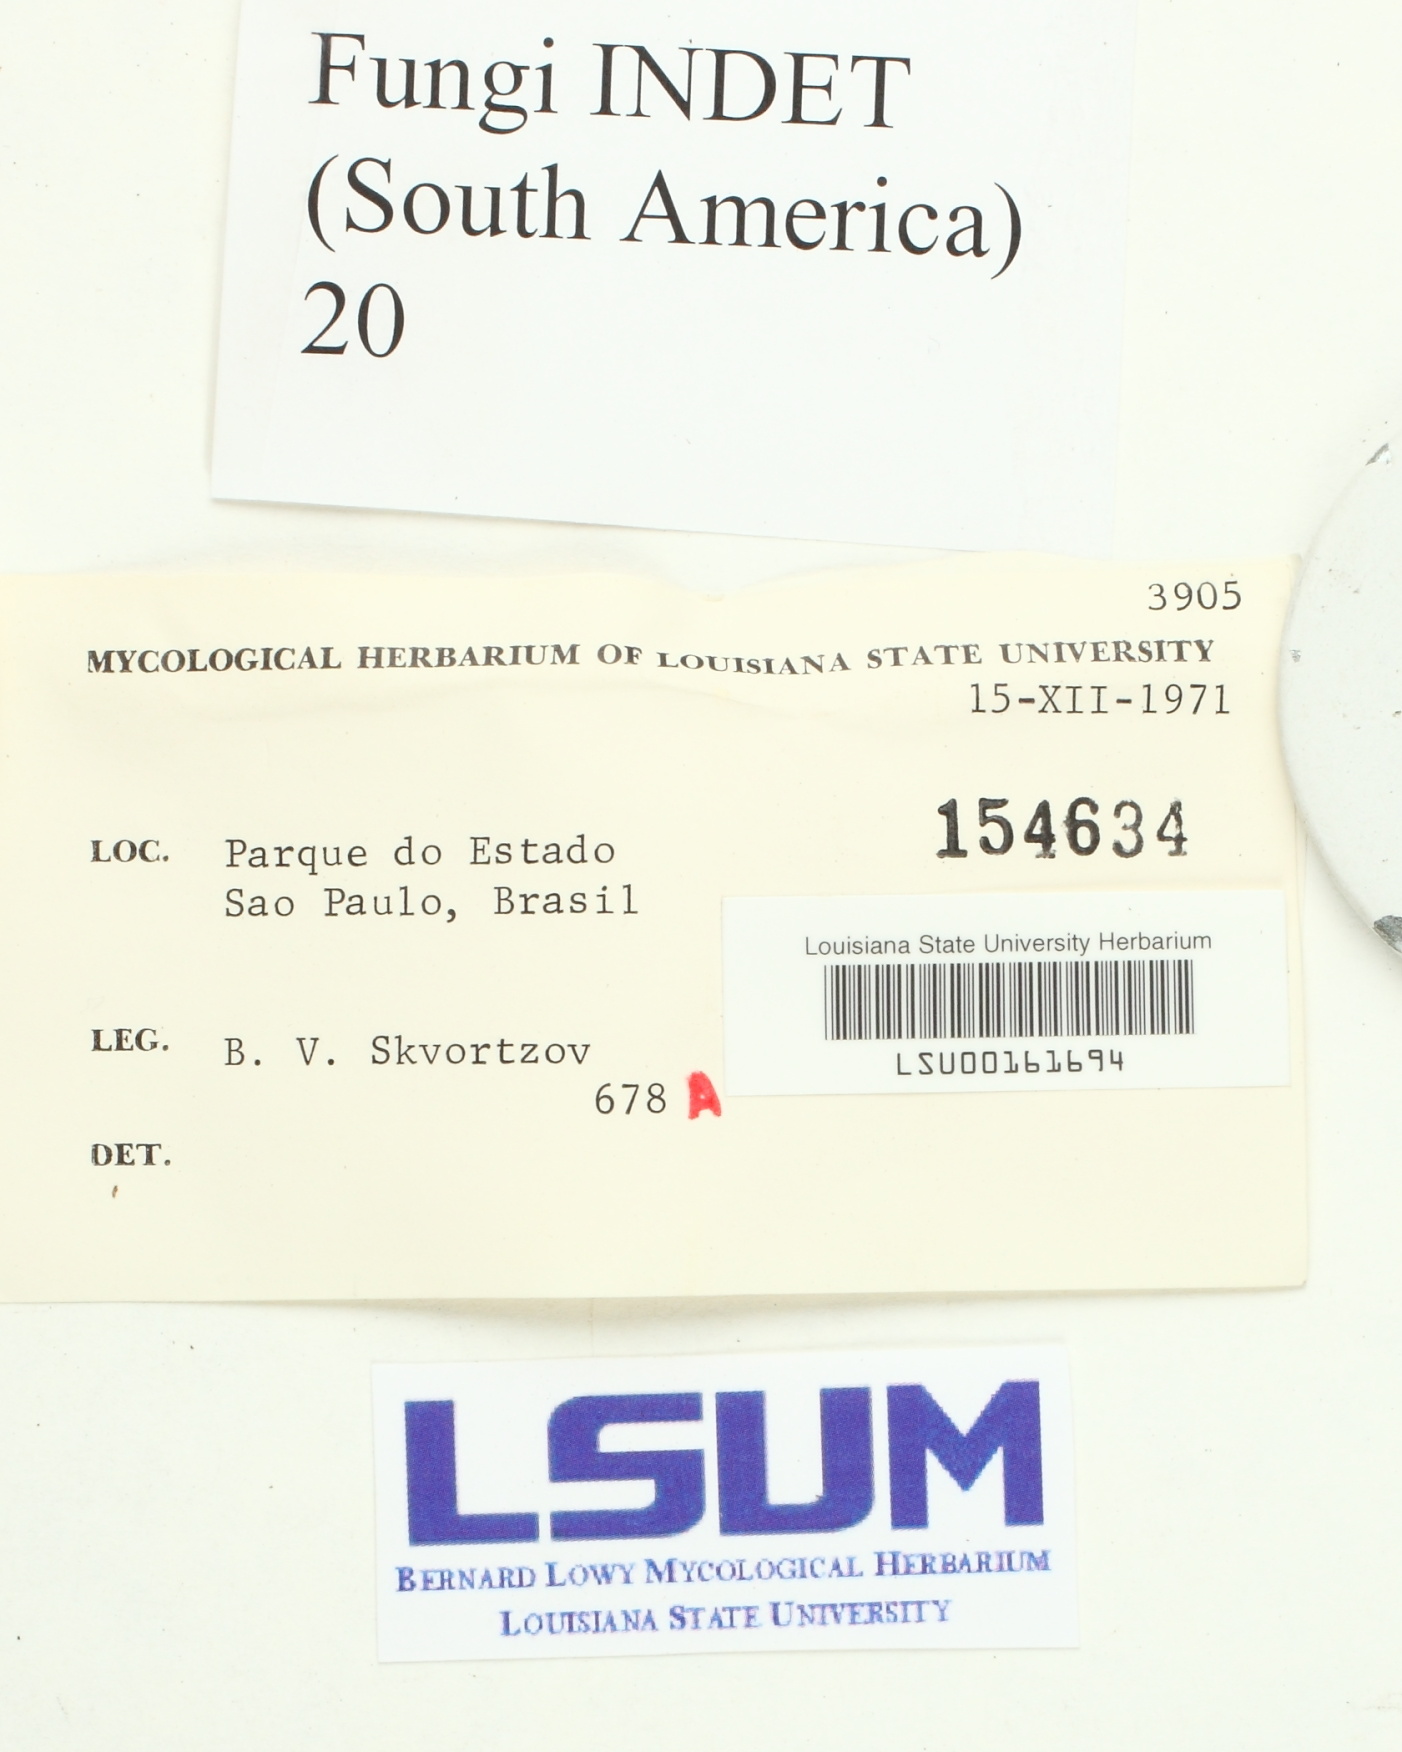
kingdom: Fungi
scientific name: Fungi
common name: Fungi
